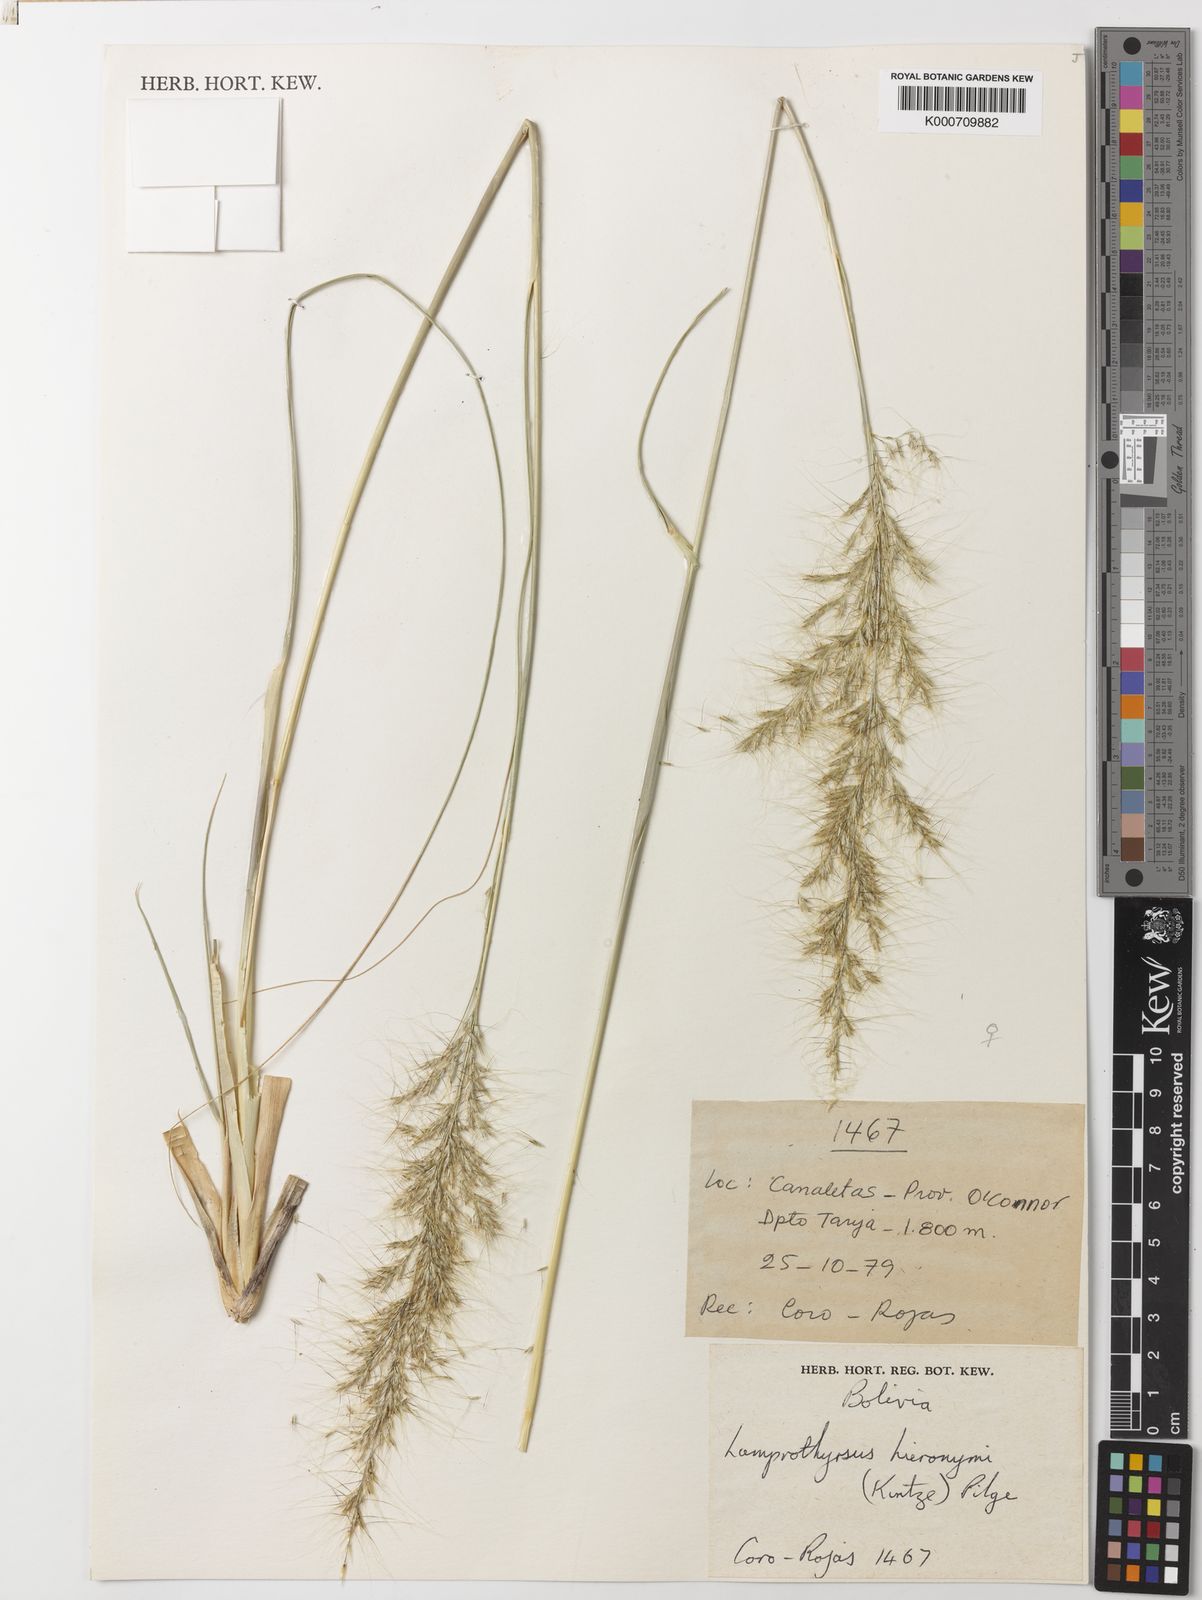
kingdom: Plantae
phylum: Tracheophyta
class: Liliopsida
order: Poales
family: Poaceae
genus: Cortaderia
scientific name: Cortaderia hieronymi
